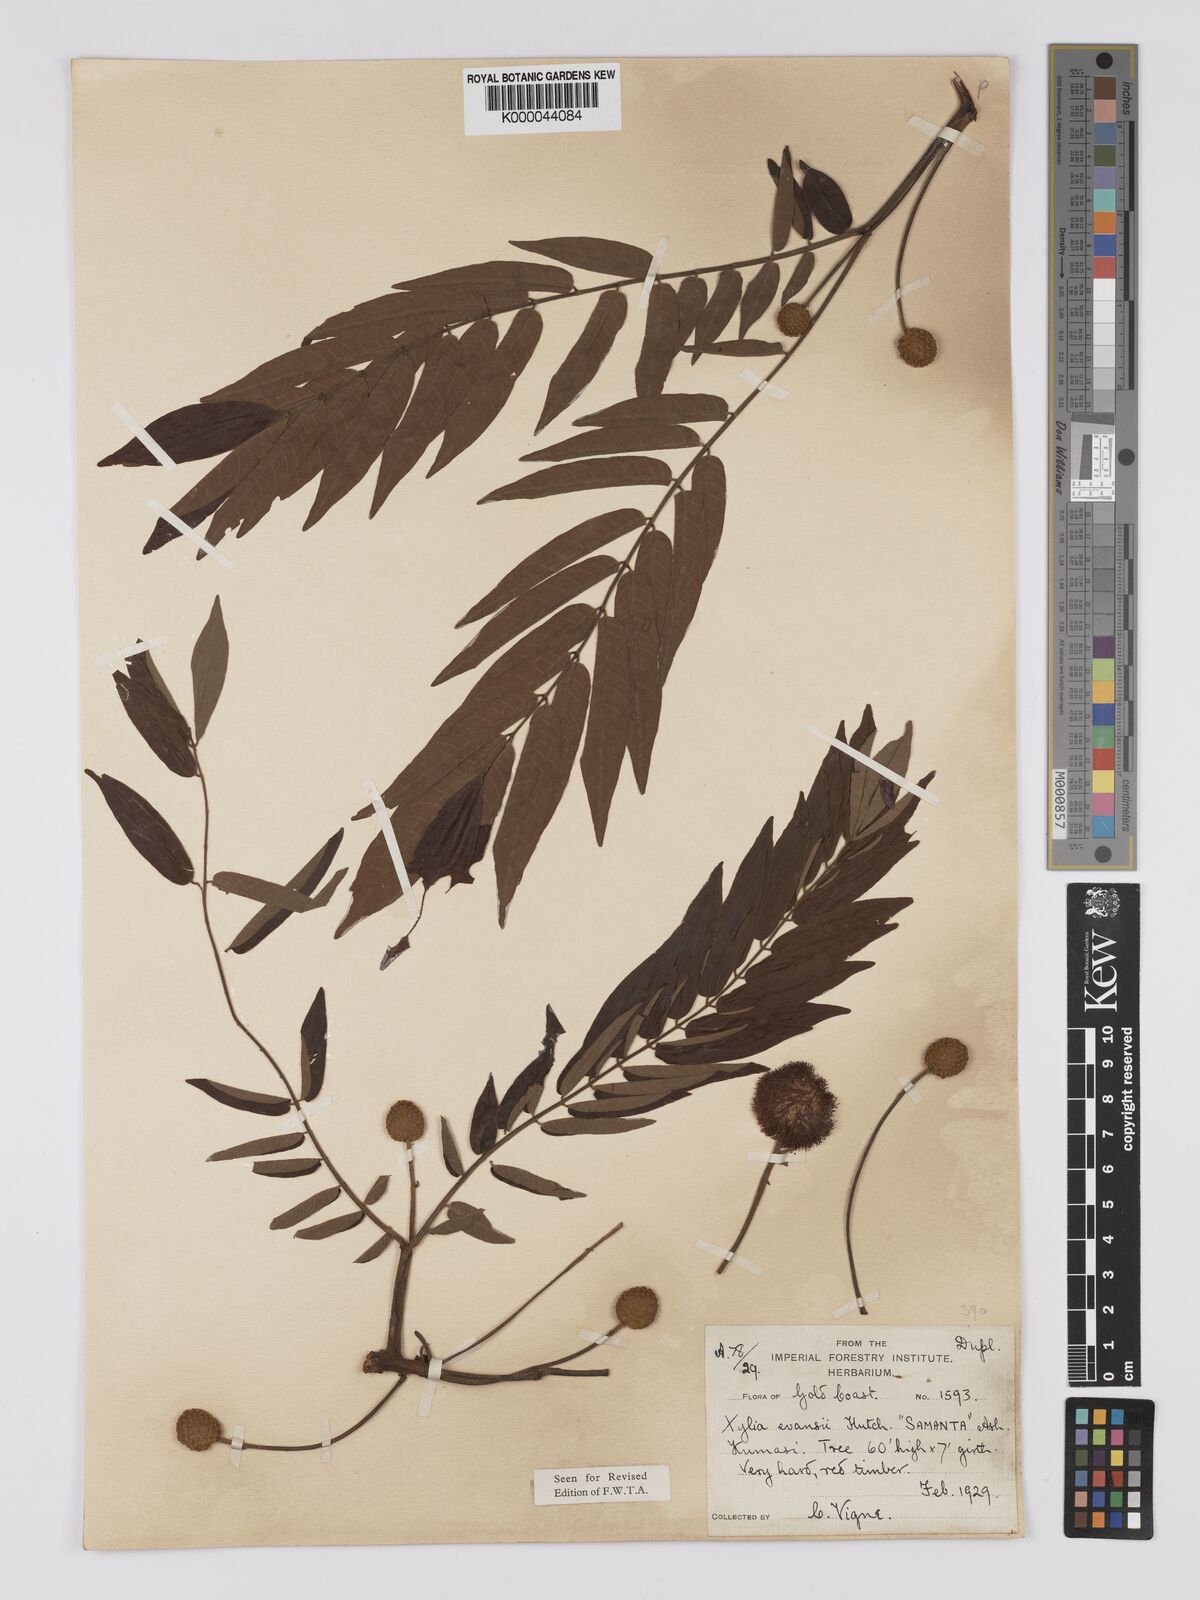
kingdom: Plantae
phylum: Tracheophyta
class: Magnoliopsida
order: Fabales
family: Fabaceae
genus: Xylia
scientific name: Xylia evansii
